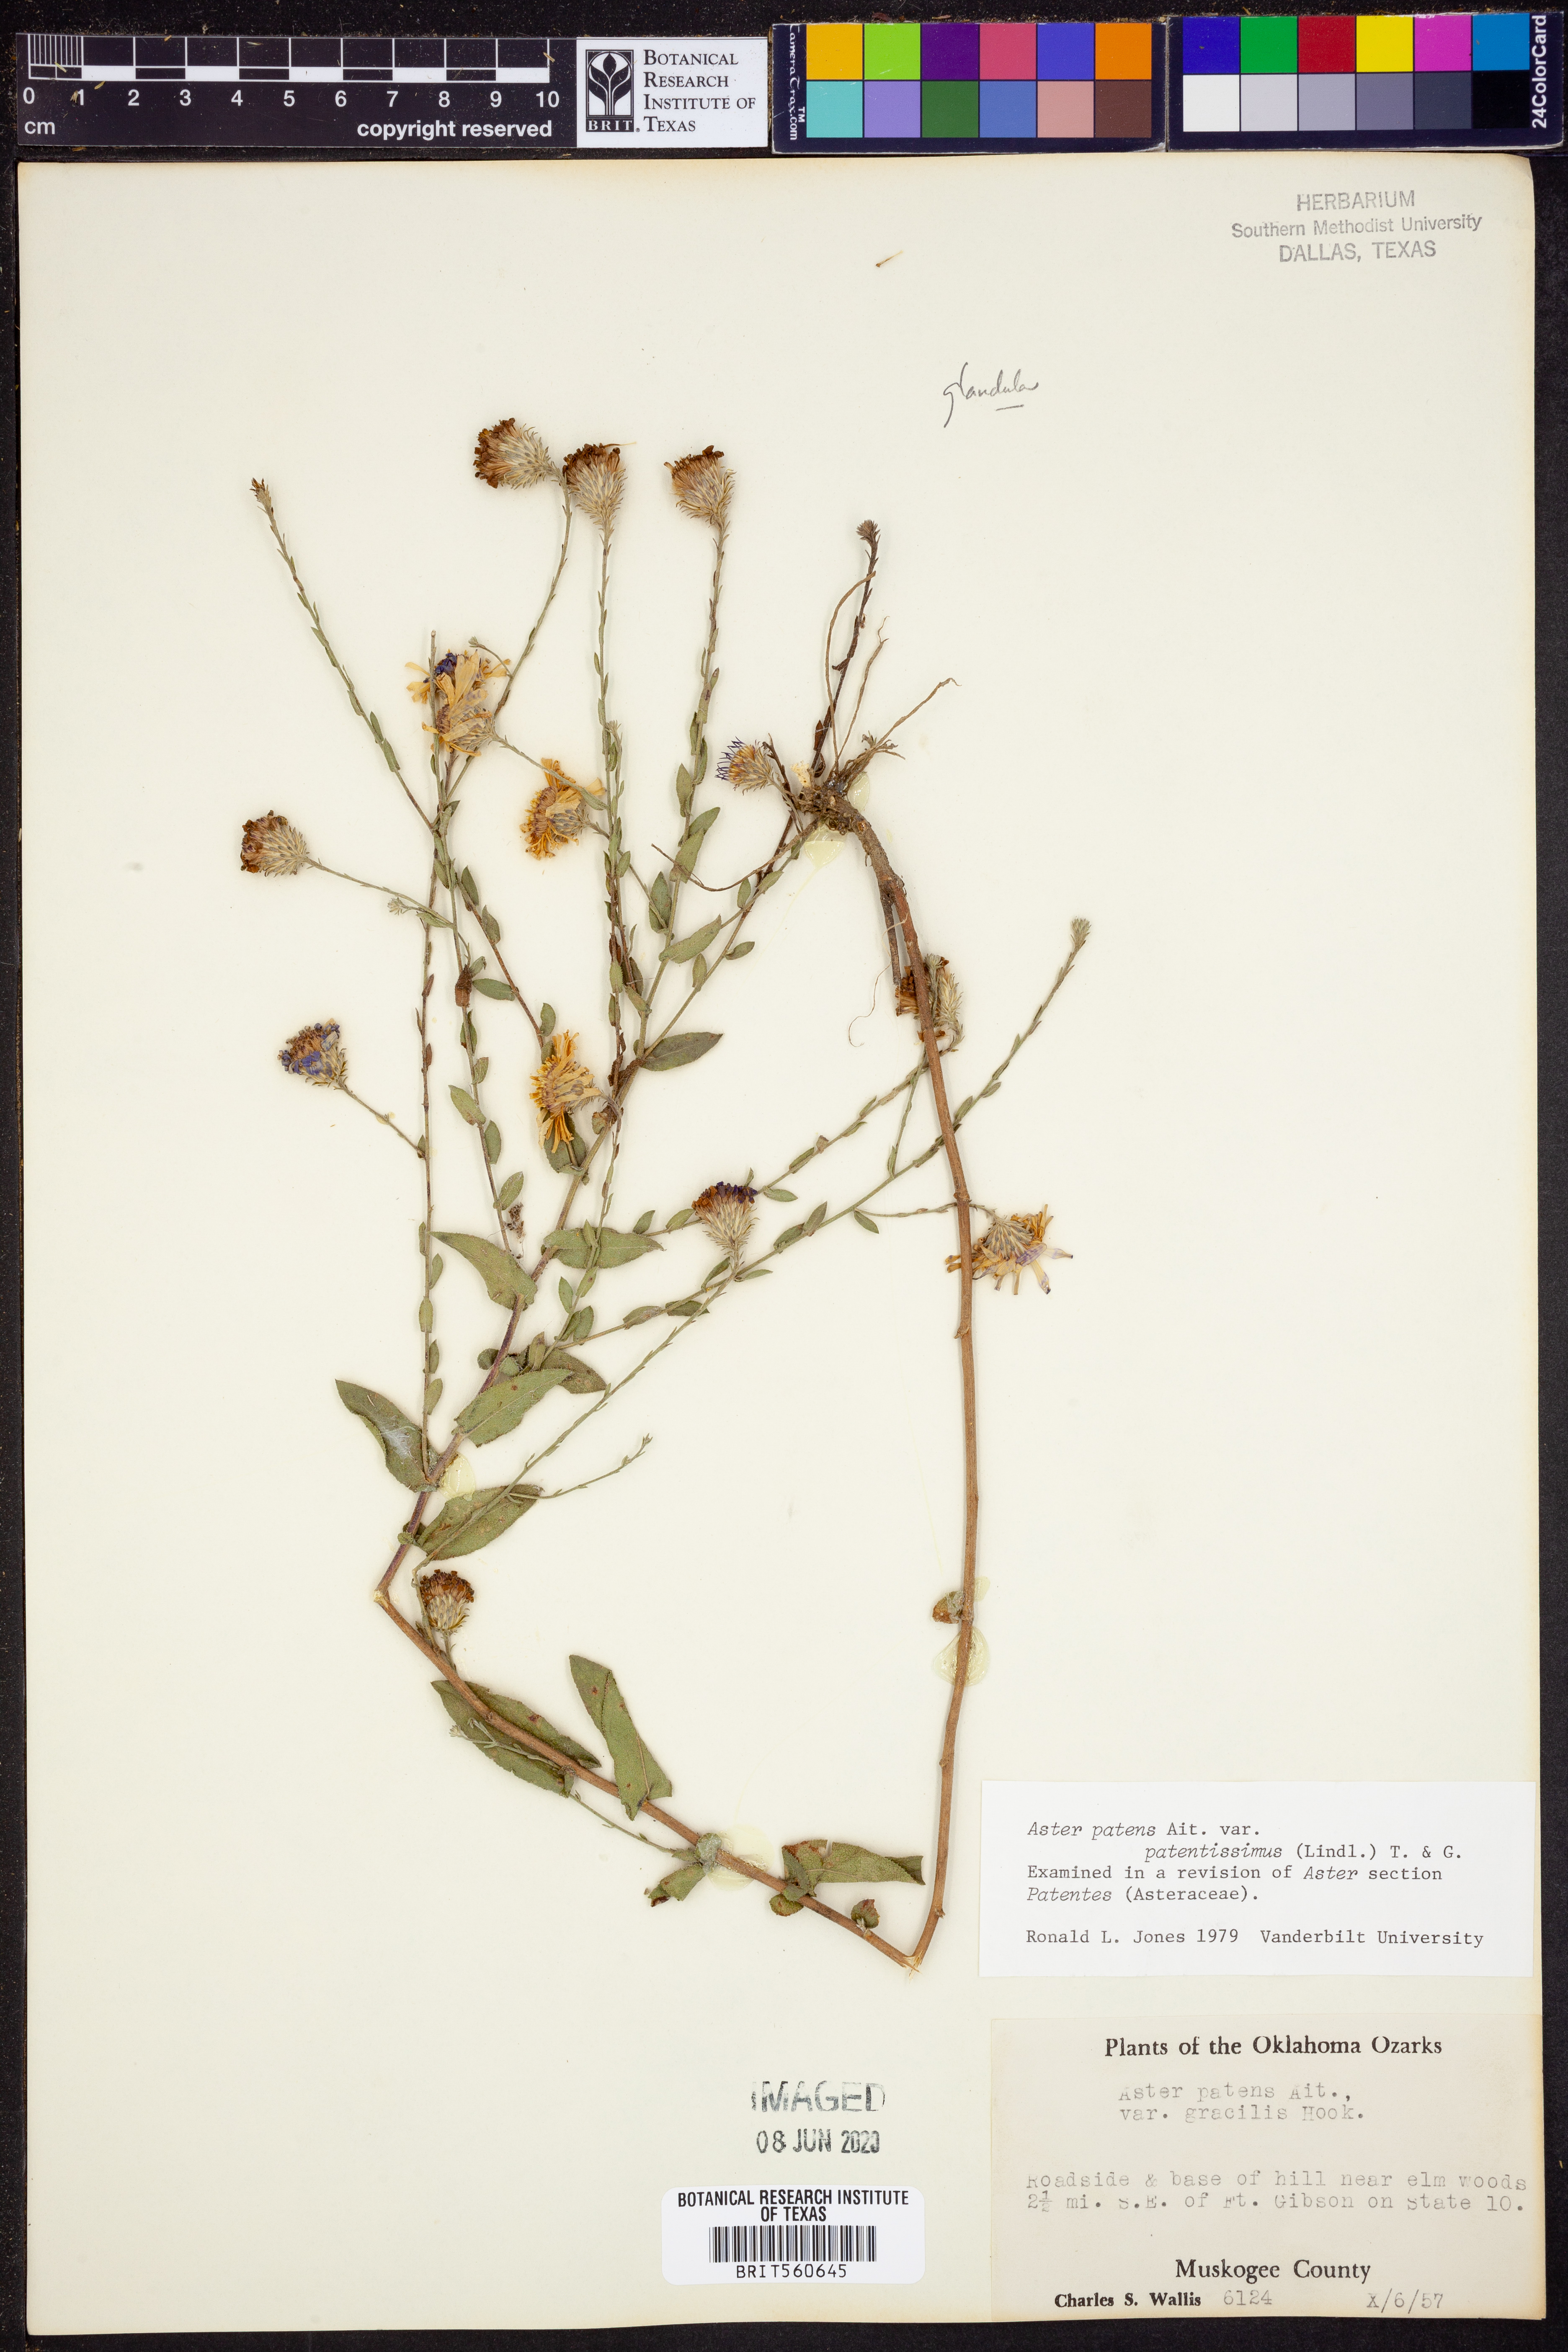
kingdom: Plantae
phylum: Tracheophyta
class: Magnoliopsida
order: Asterales
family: Asteraceae
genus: Symphyotrichum
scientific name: Symphyotrichum patens
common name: Late purple aster
